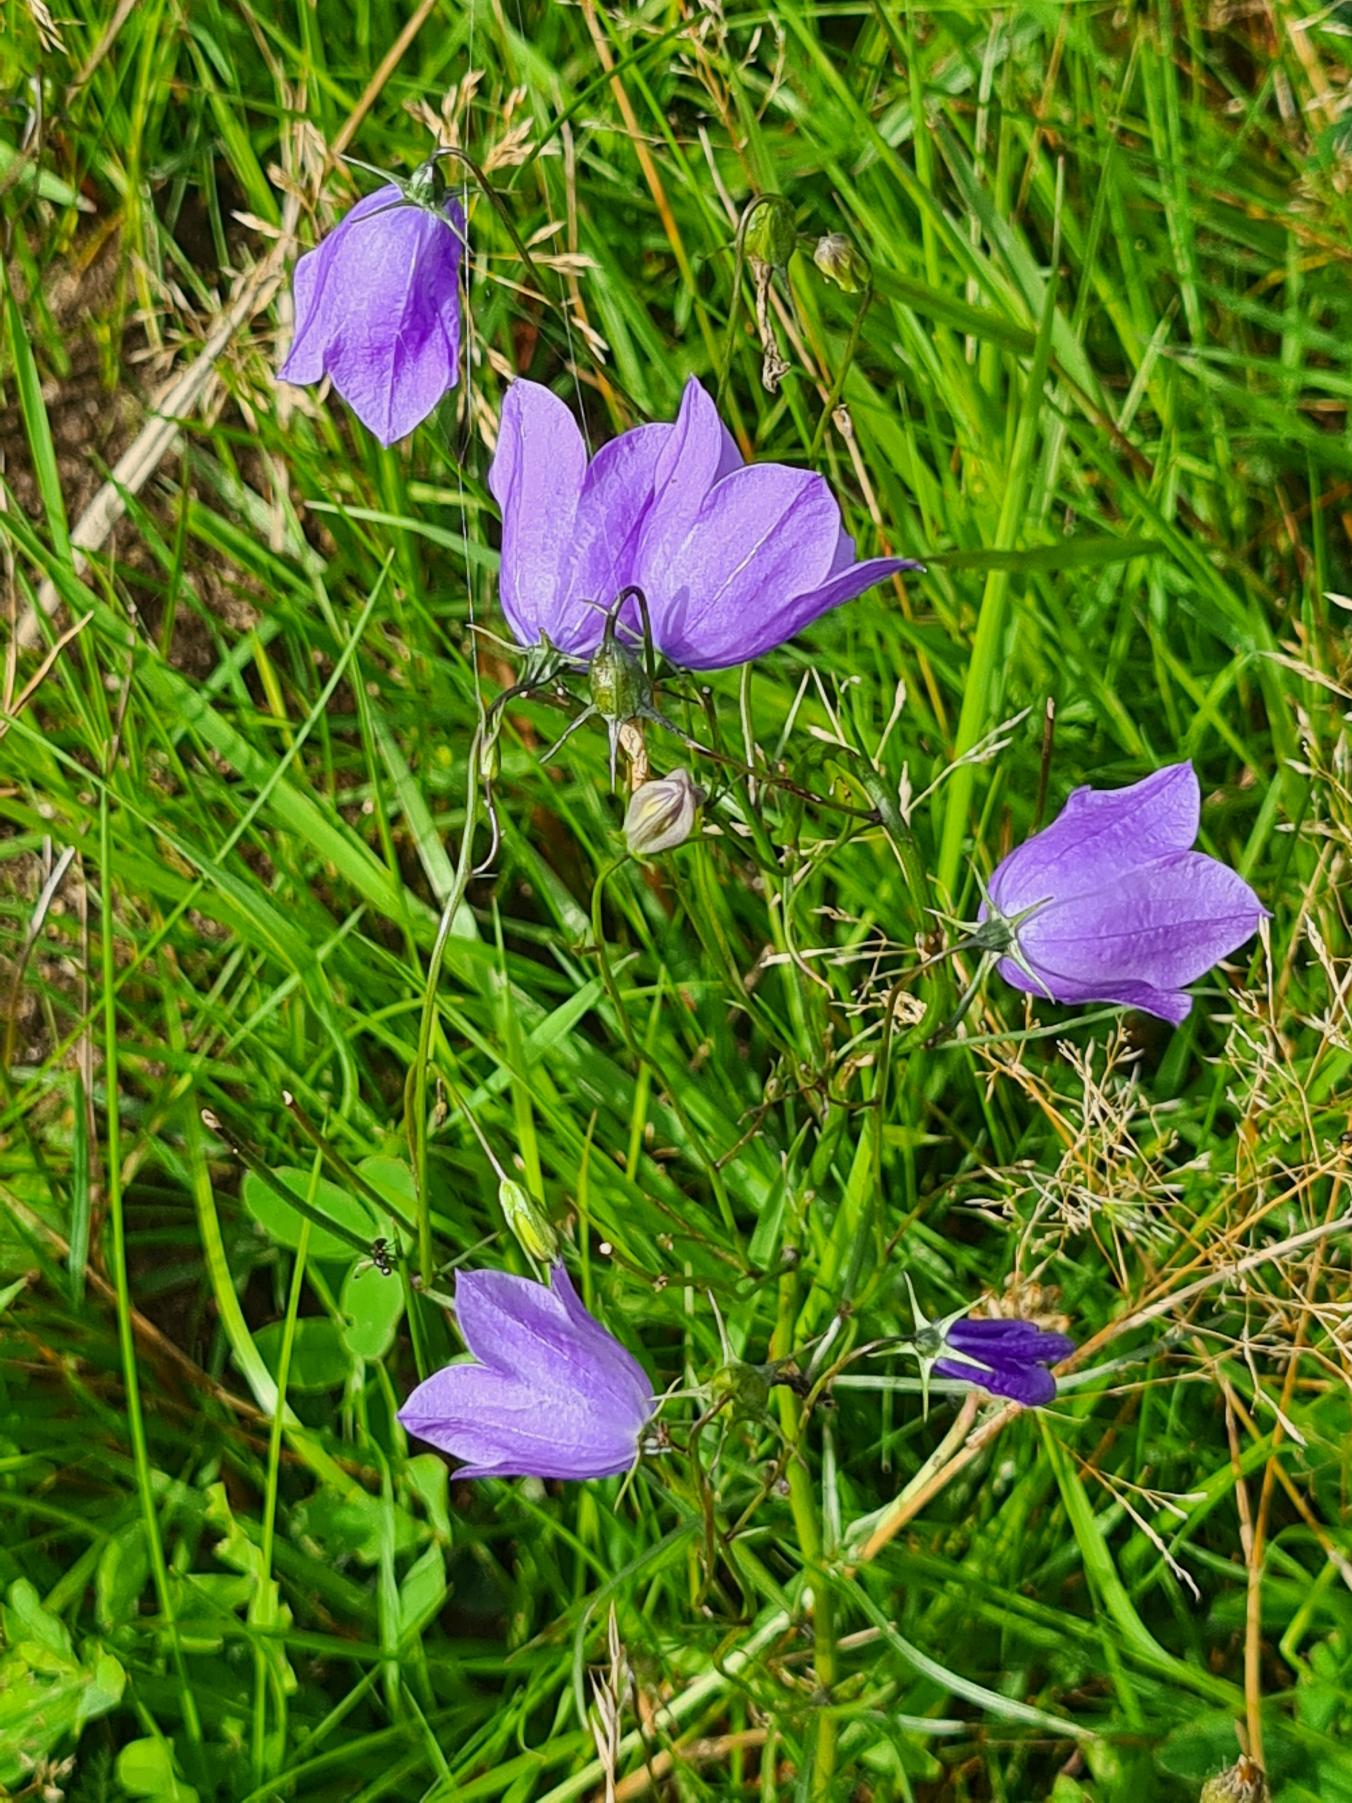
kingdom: Plantae
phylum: Tracheophyta
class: Magnoliopsida
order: Asterales
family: Campanulaceae
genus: Campanula
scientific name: Campanula rotundifolia
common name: Liden klokke
